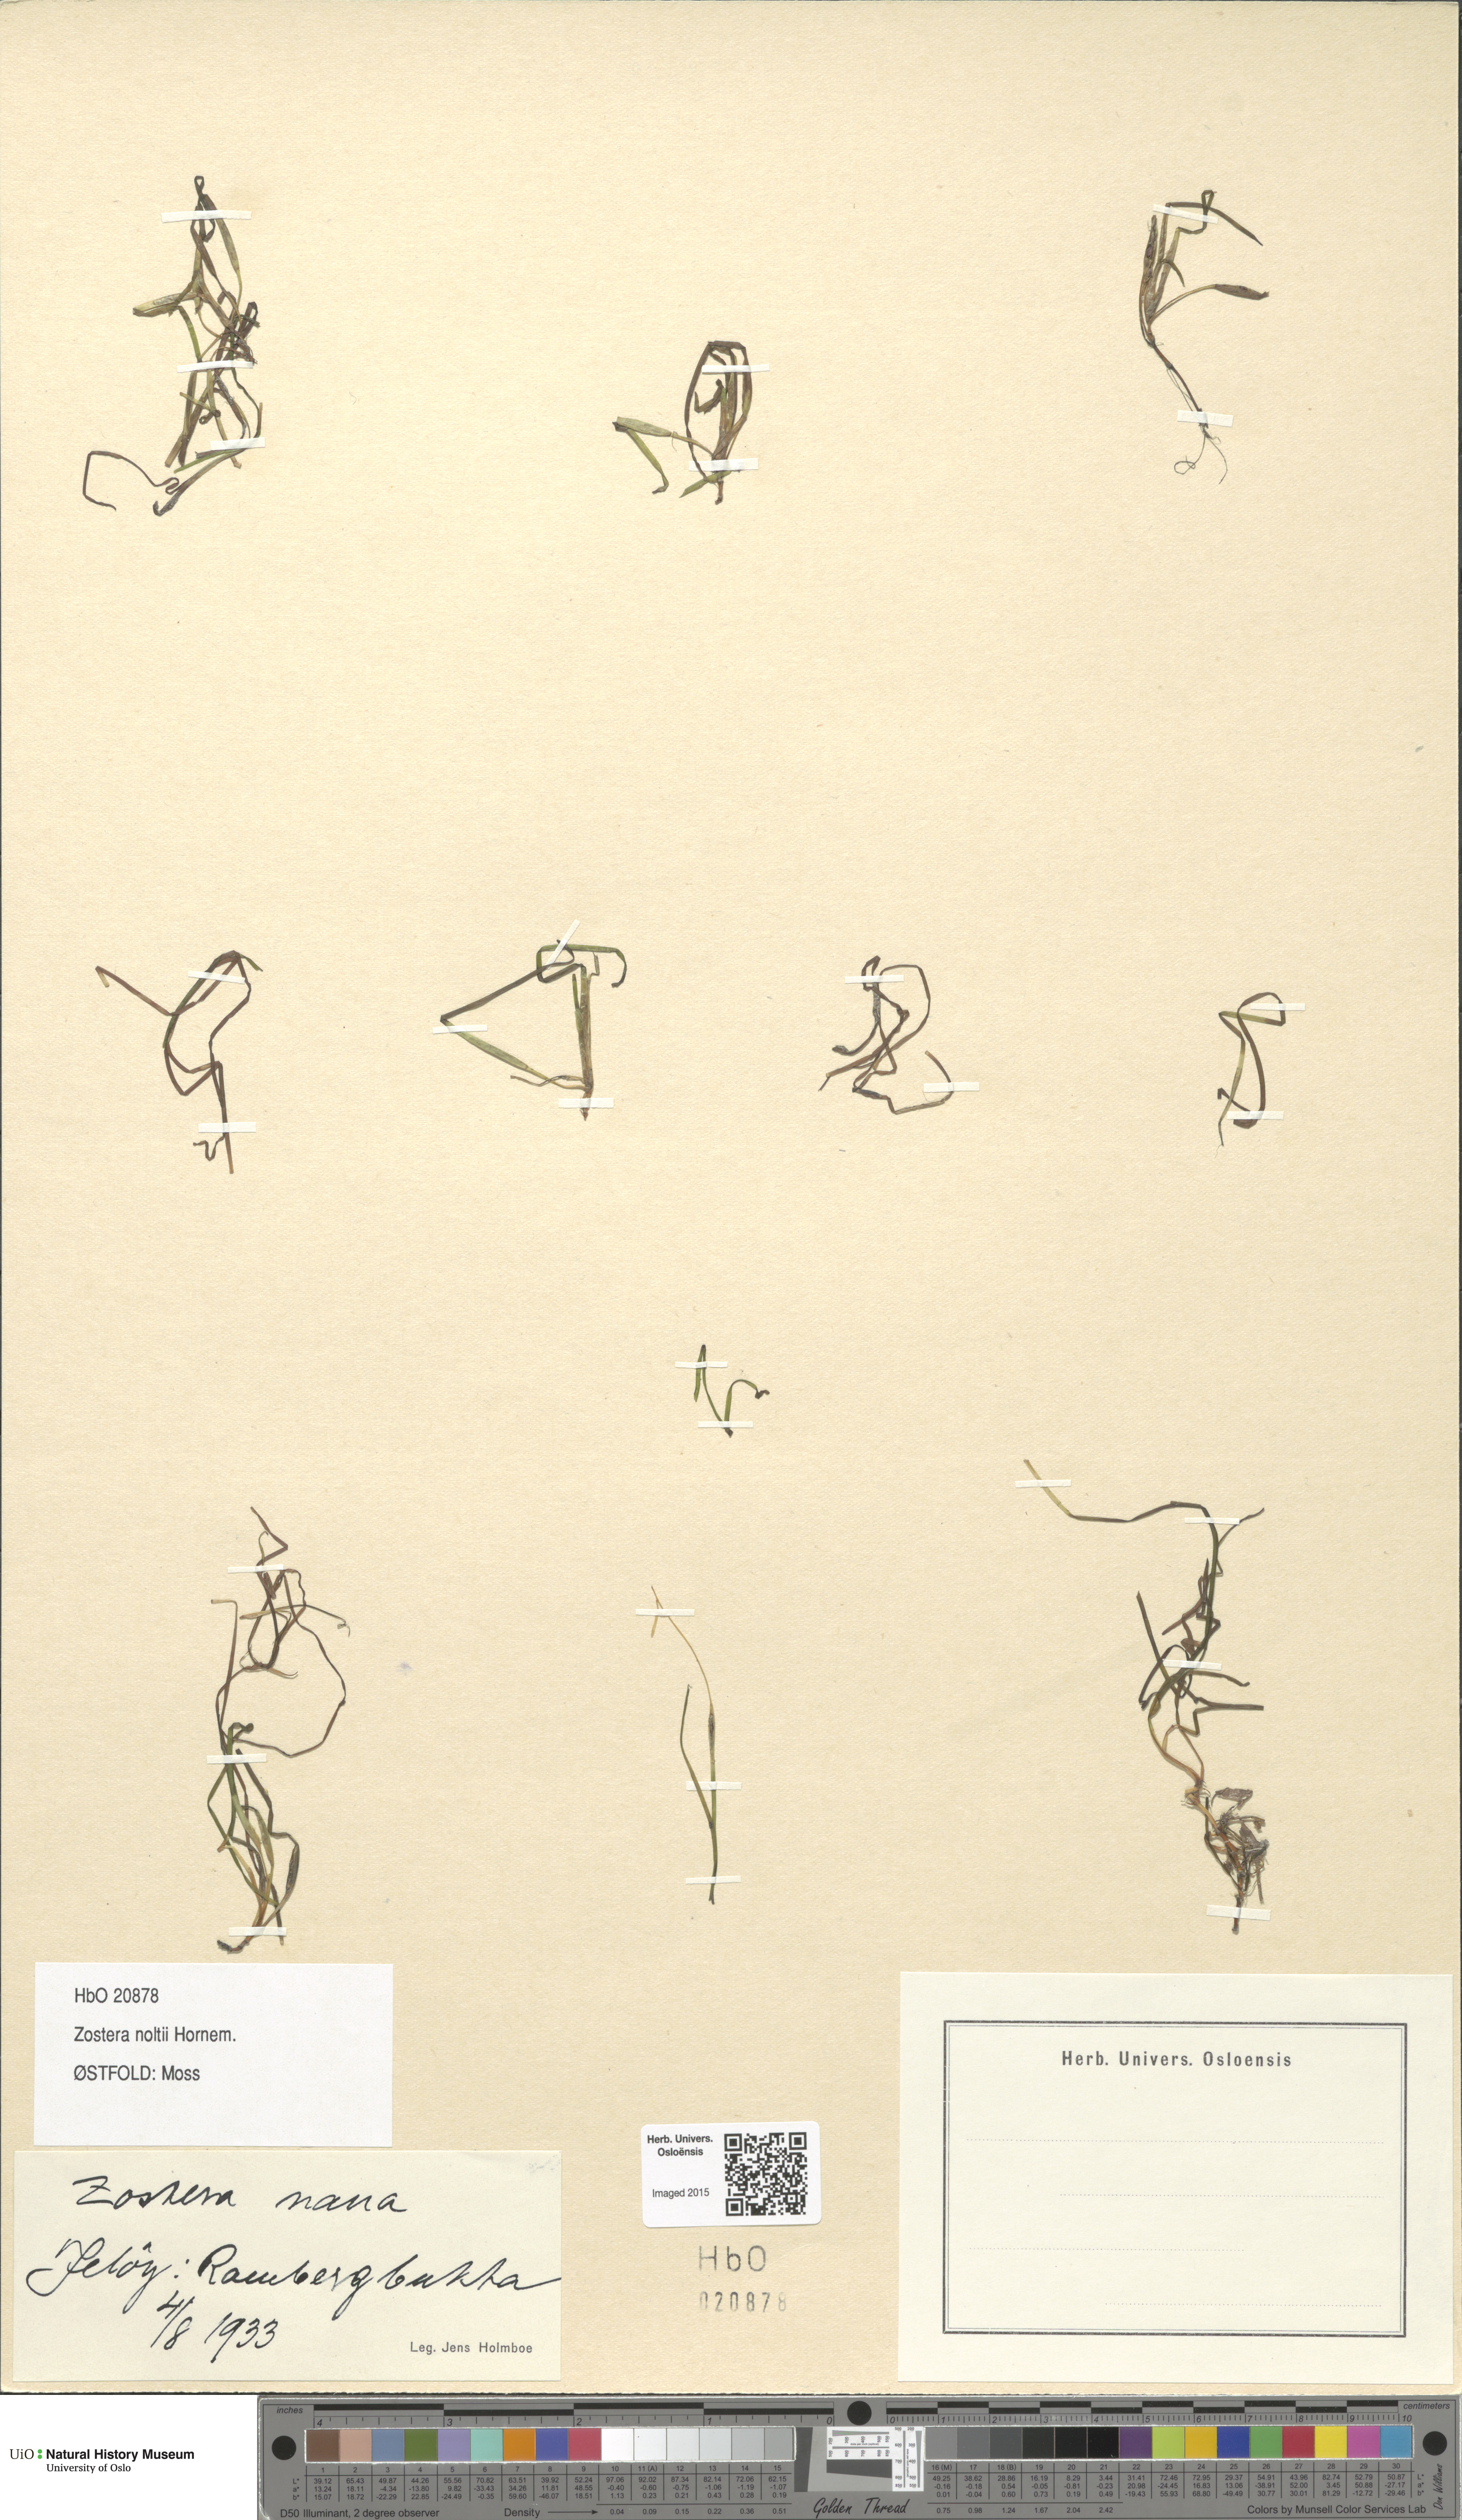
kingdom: Plantae
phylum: Tracheophyta
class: Liliopsida
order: Alismatales
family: Zosteraceae
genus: Zostera
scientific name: Zostera noltii
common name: Dwarf eelgrass
